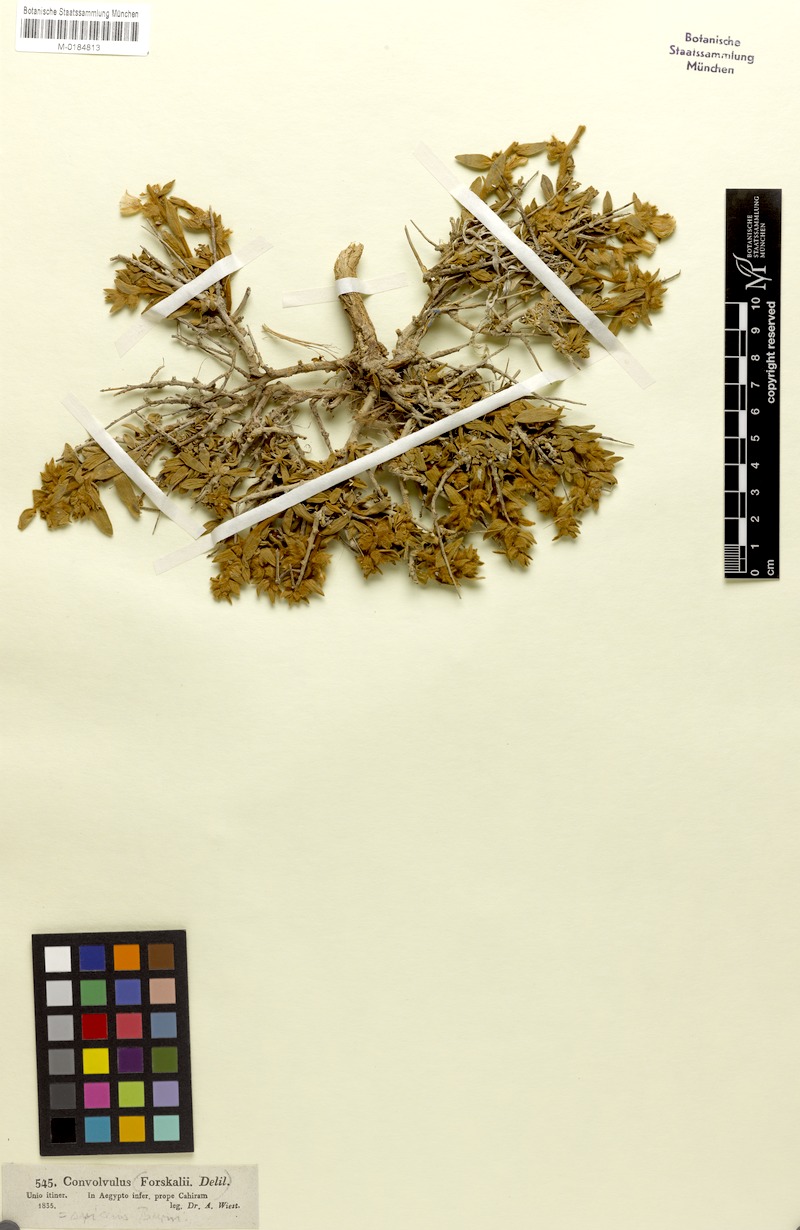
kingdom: Plantae
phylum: Tracheophyta
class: Magnoliopsida
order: Solanales
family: Convolvulaceae
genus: Argyreia
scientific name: Argyreia mollis
